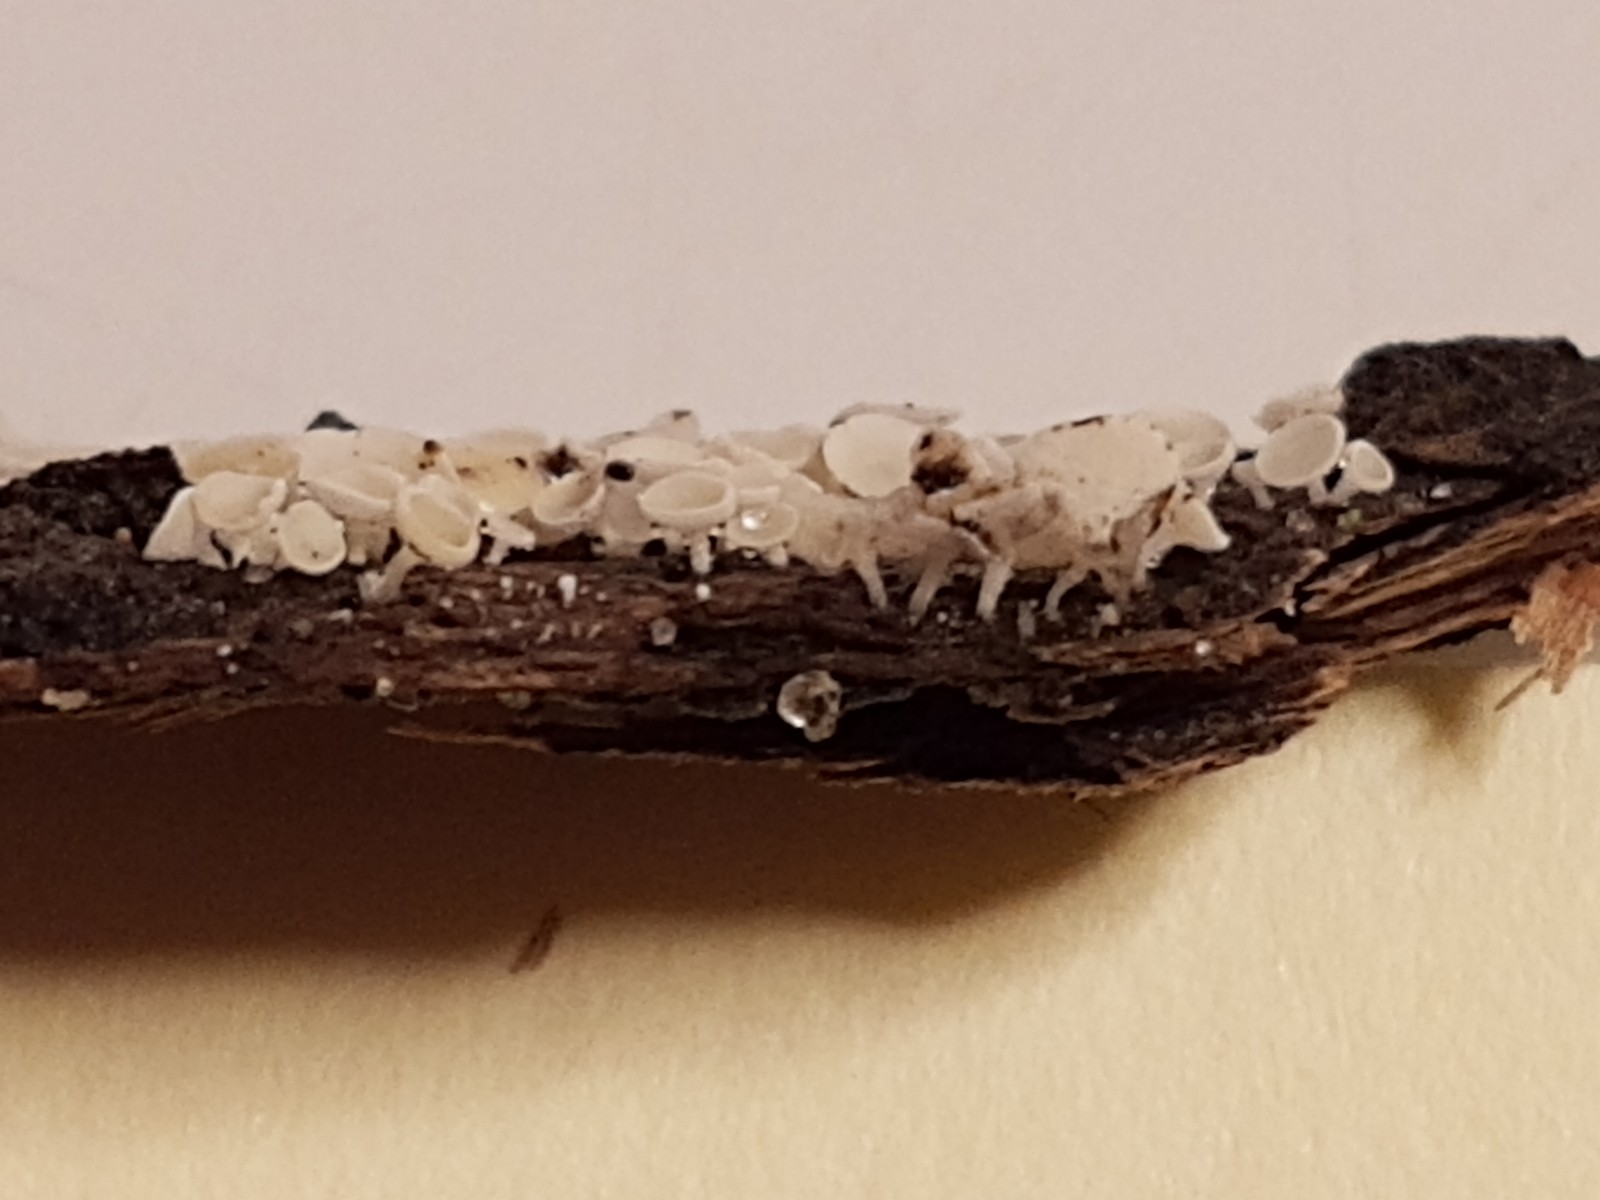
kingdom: Fungi
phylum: Ascomycota
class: Leotiomycetes
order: Helotiales
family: Lachnaceae
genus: Lachnum
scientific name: Lachnum
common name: frynseskive
